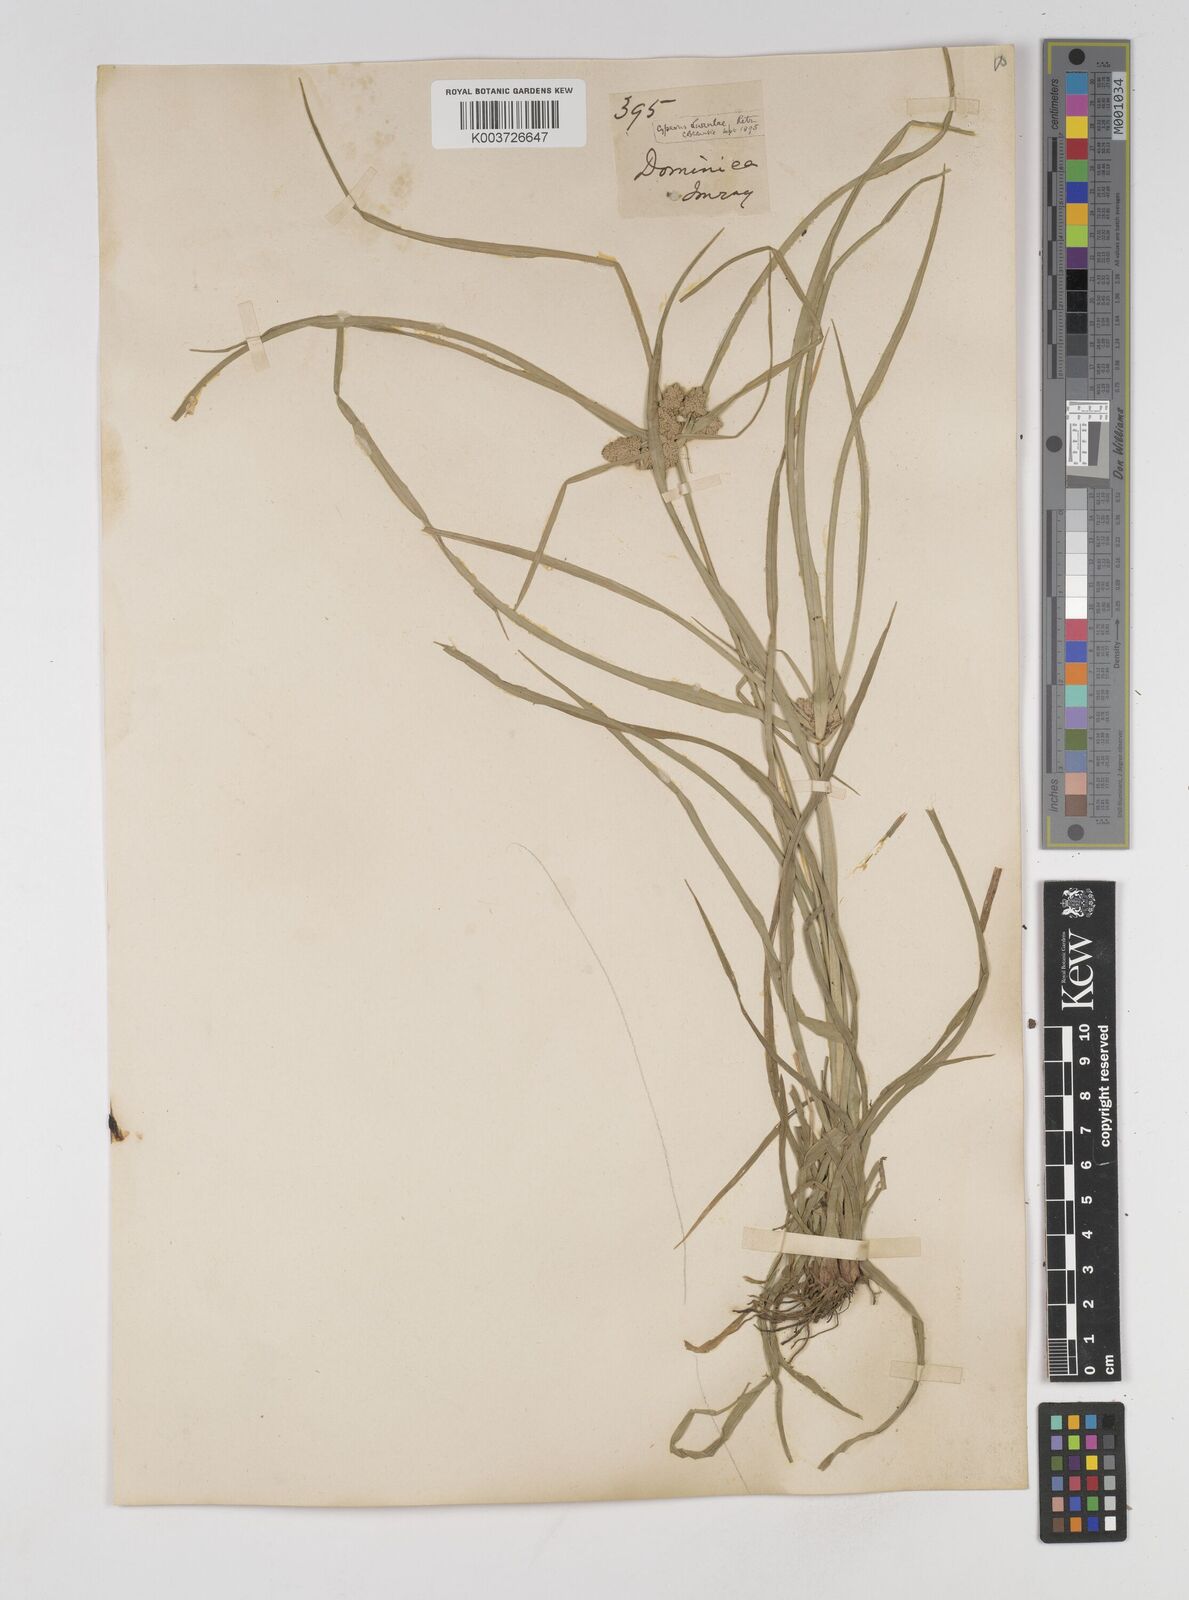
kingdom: Plantae
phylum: Tracheophyta
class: Liliopsida
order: Poales
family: Cyperaceae
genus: Cyperus
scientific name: Cyperus luzulae
